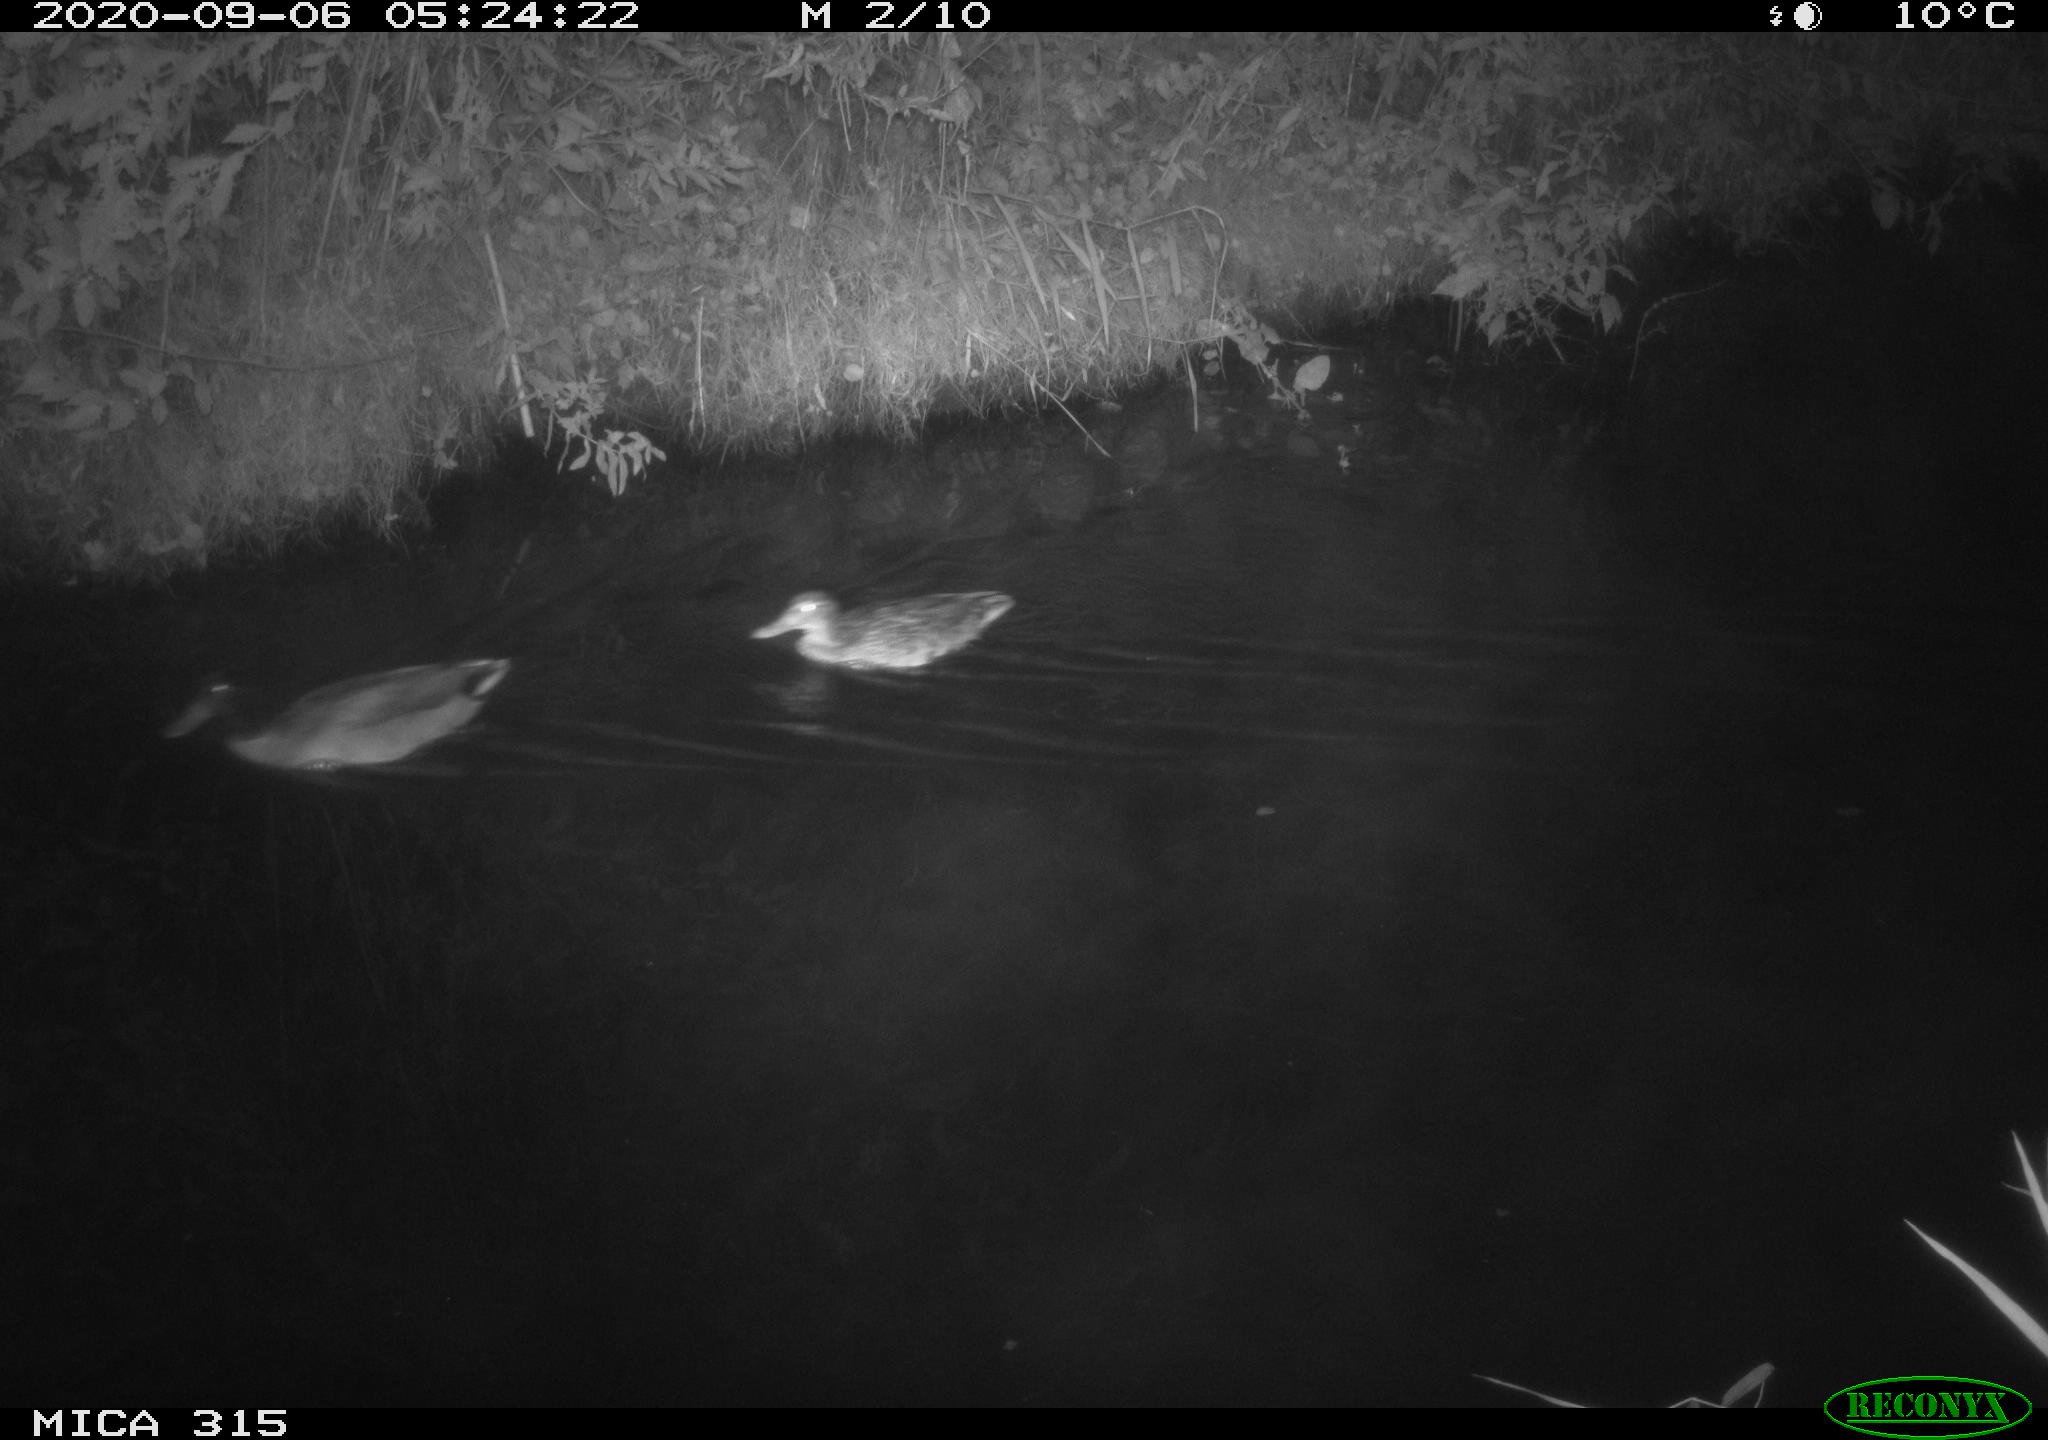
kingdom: Animalia
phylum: Chordata
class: Aves
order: Anseriformes
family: Anatidae
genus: Anas
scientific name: Anas platyrhynchos
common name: Mallard
